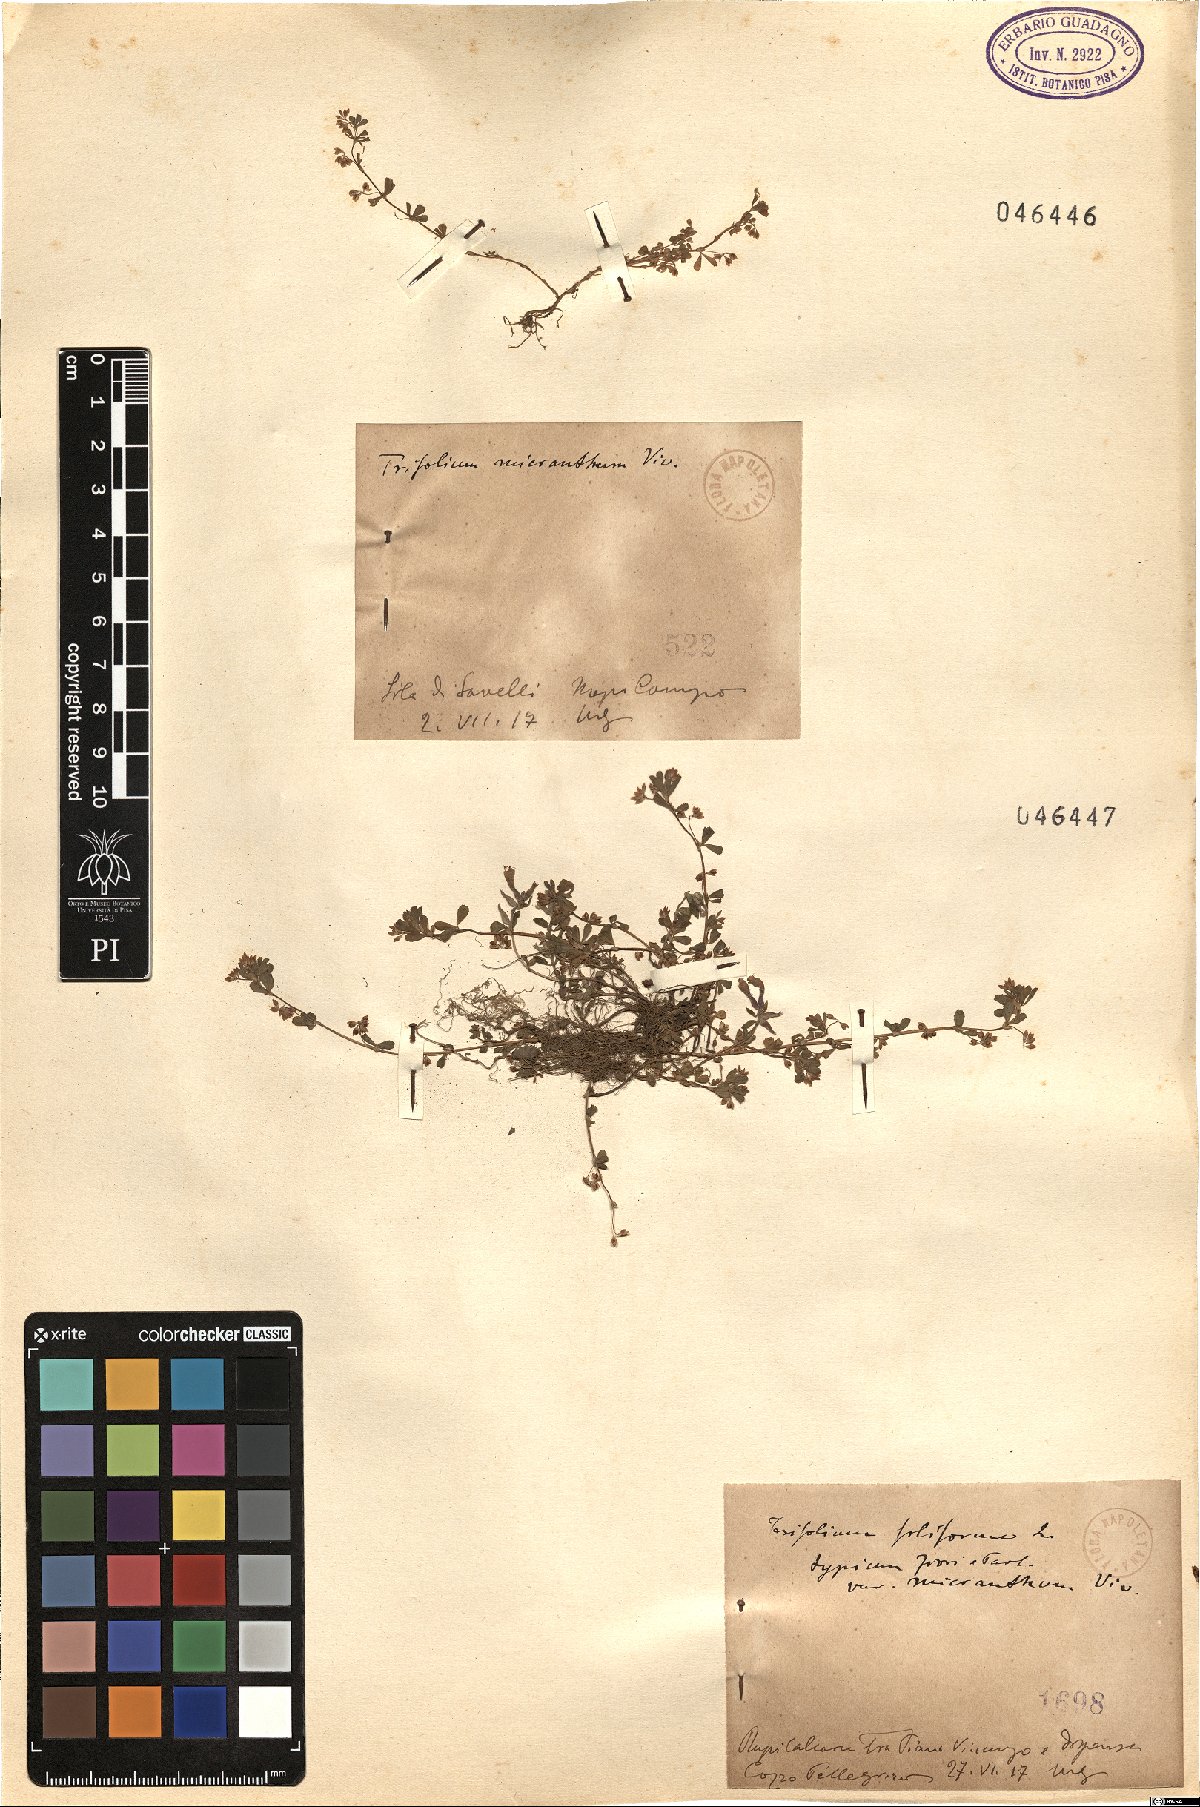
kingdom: Plantae
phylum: Tracheophyta
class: Magnoliopsida
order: Fabales
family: Fabaceae
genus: Trifolium
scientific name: Trifolium micranthum
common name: Slender trefoil
